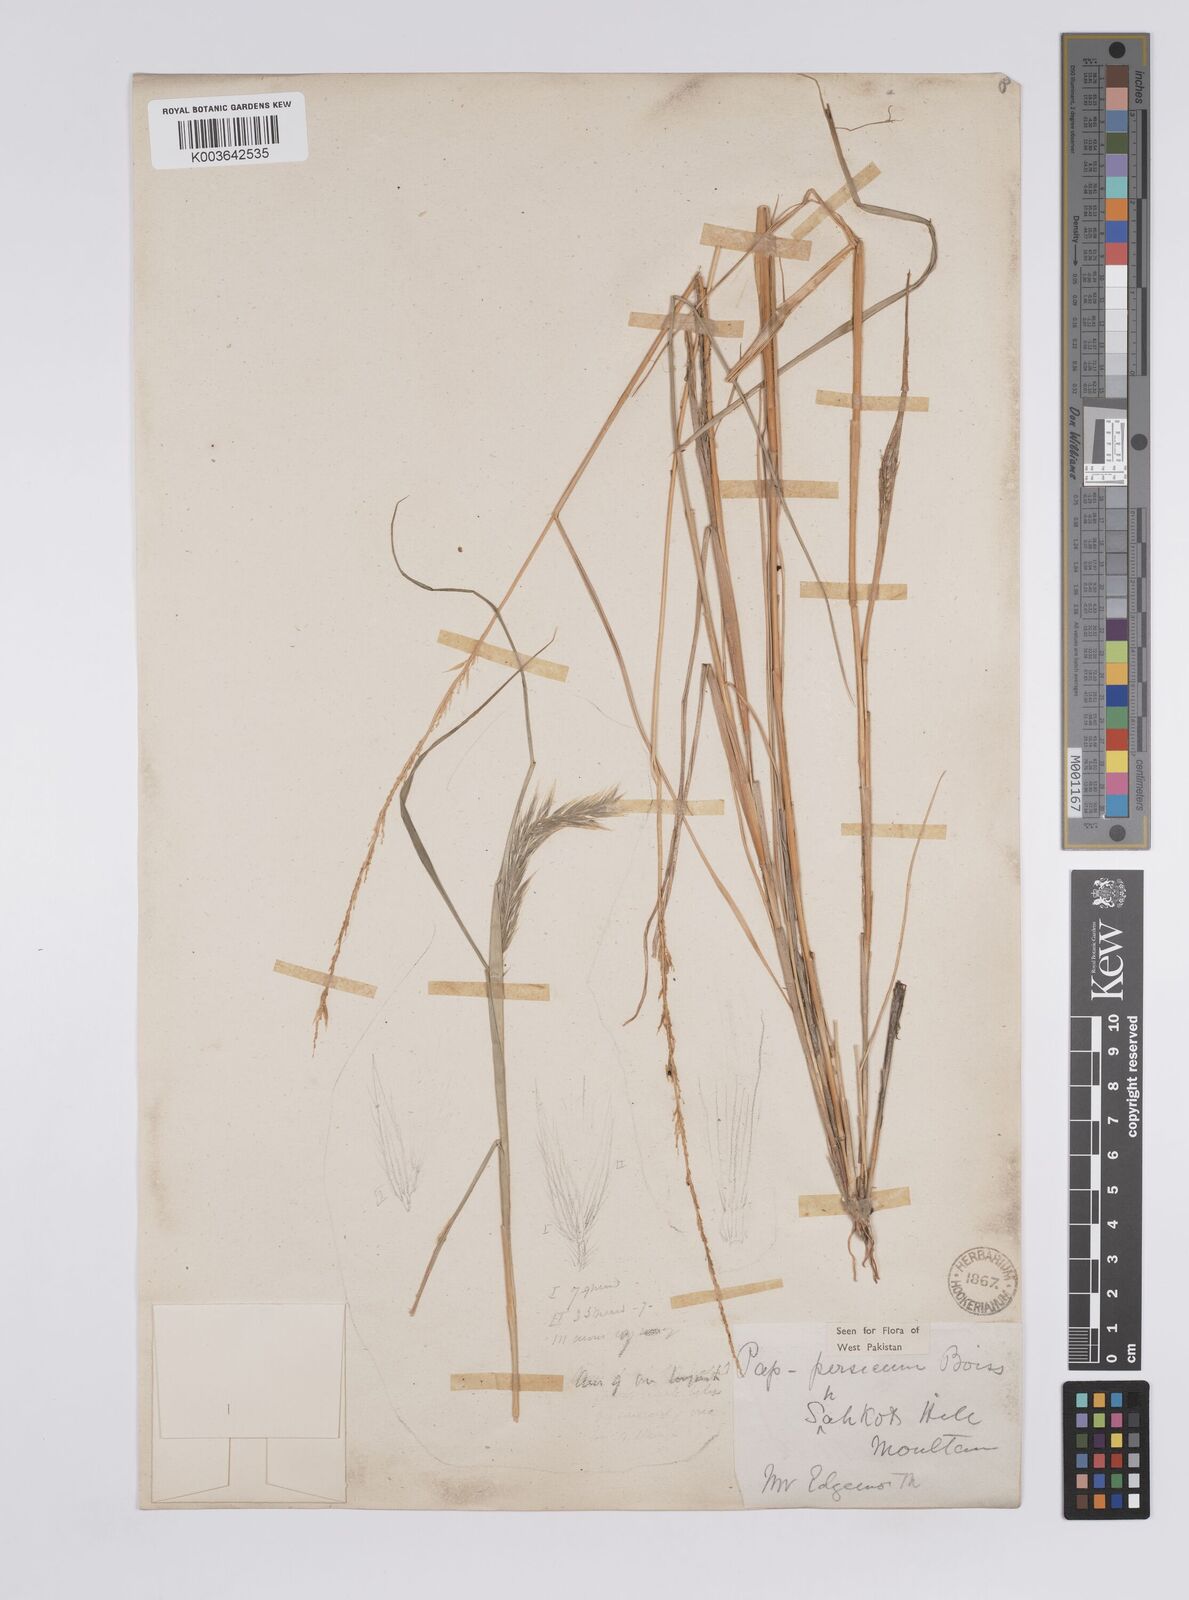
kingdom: Plantae
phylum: Tracheophyta
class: Liliopsida
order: Poales
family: Poaceae
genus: Enneapogon
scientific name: Enneapogon persicus
